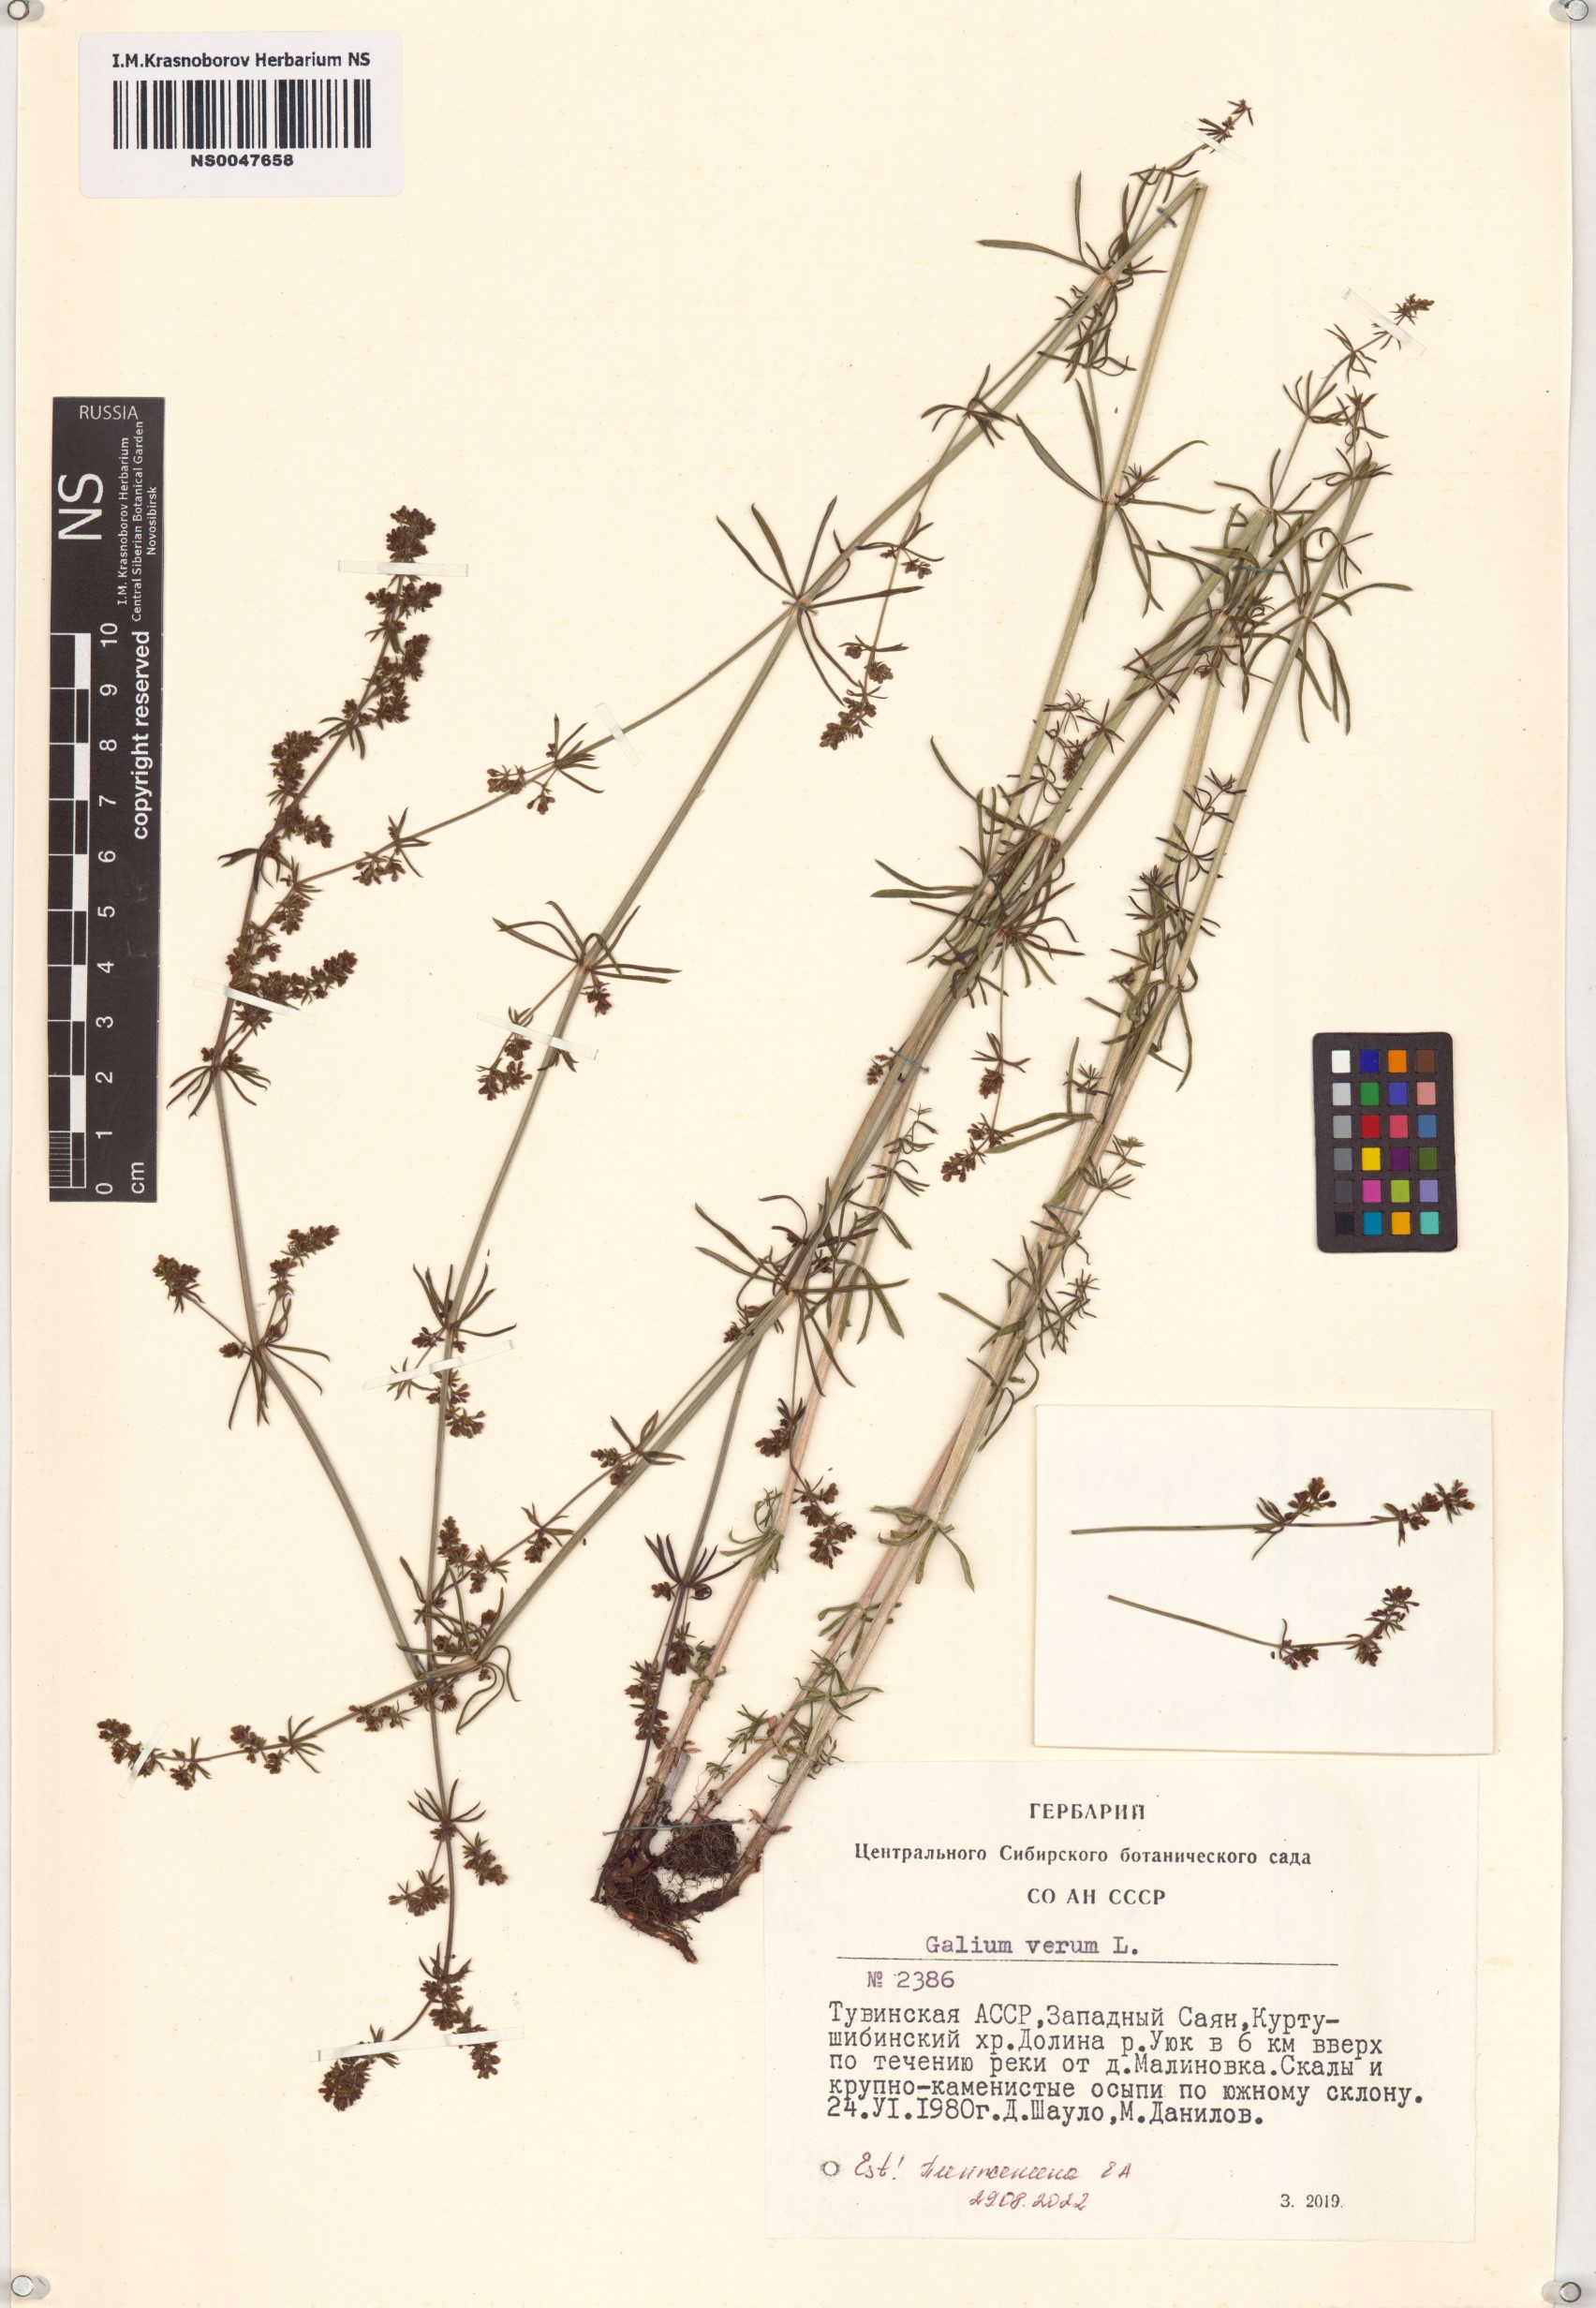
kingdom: Plantae
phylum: Tracheophyta
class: Magnoliopsida
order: Gentianales
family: Rubiaceae
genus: Galium
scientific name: Galium verum
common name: Lady's bedstraw
